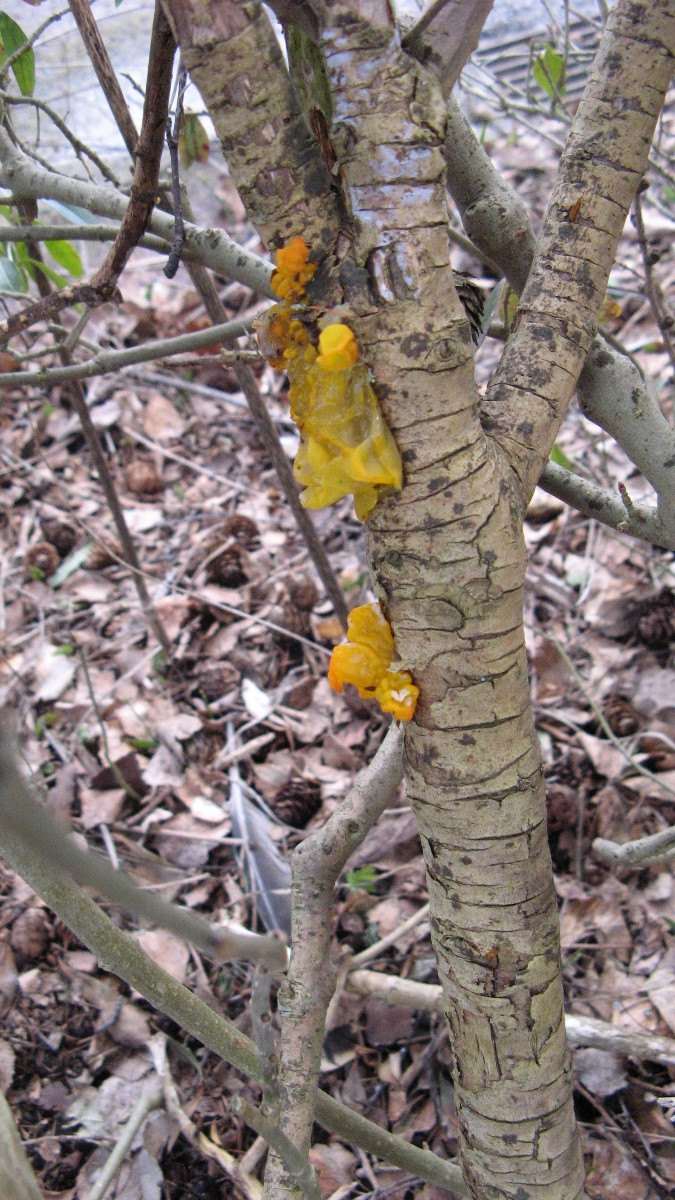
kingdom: Fungi
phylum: Basidiomycota
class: Tremellomycetes
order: Tremellales
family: Tremellaceae
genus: Tremella
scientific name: Tremella mesenterica
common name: gul bævresvamp
